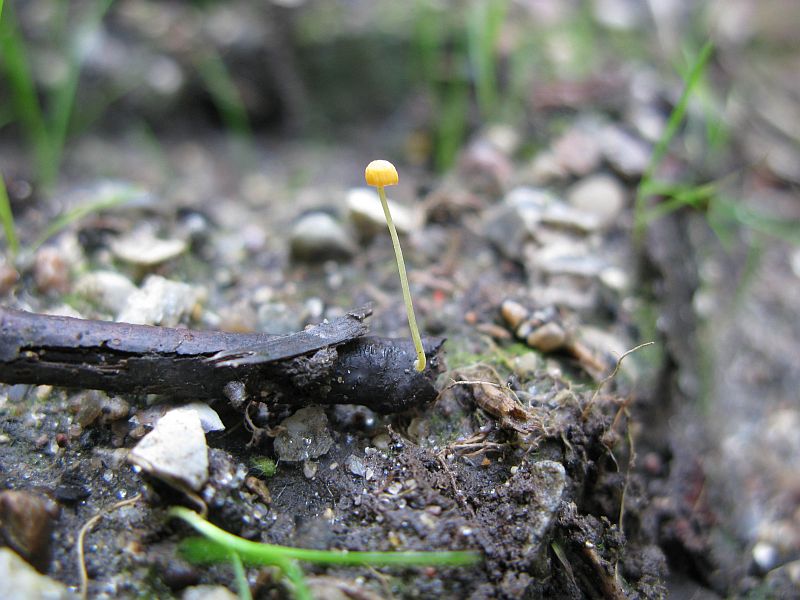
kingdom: Fungi
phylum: Basidiomycota
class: Agaricomycetes
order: Agaricales
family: Mycenaceae
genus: Mycena
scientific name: Mycena acicula
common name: orange huesvamp
